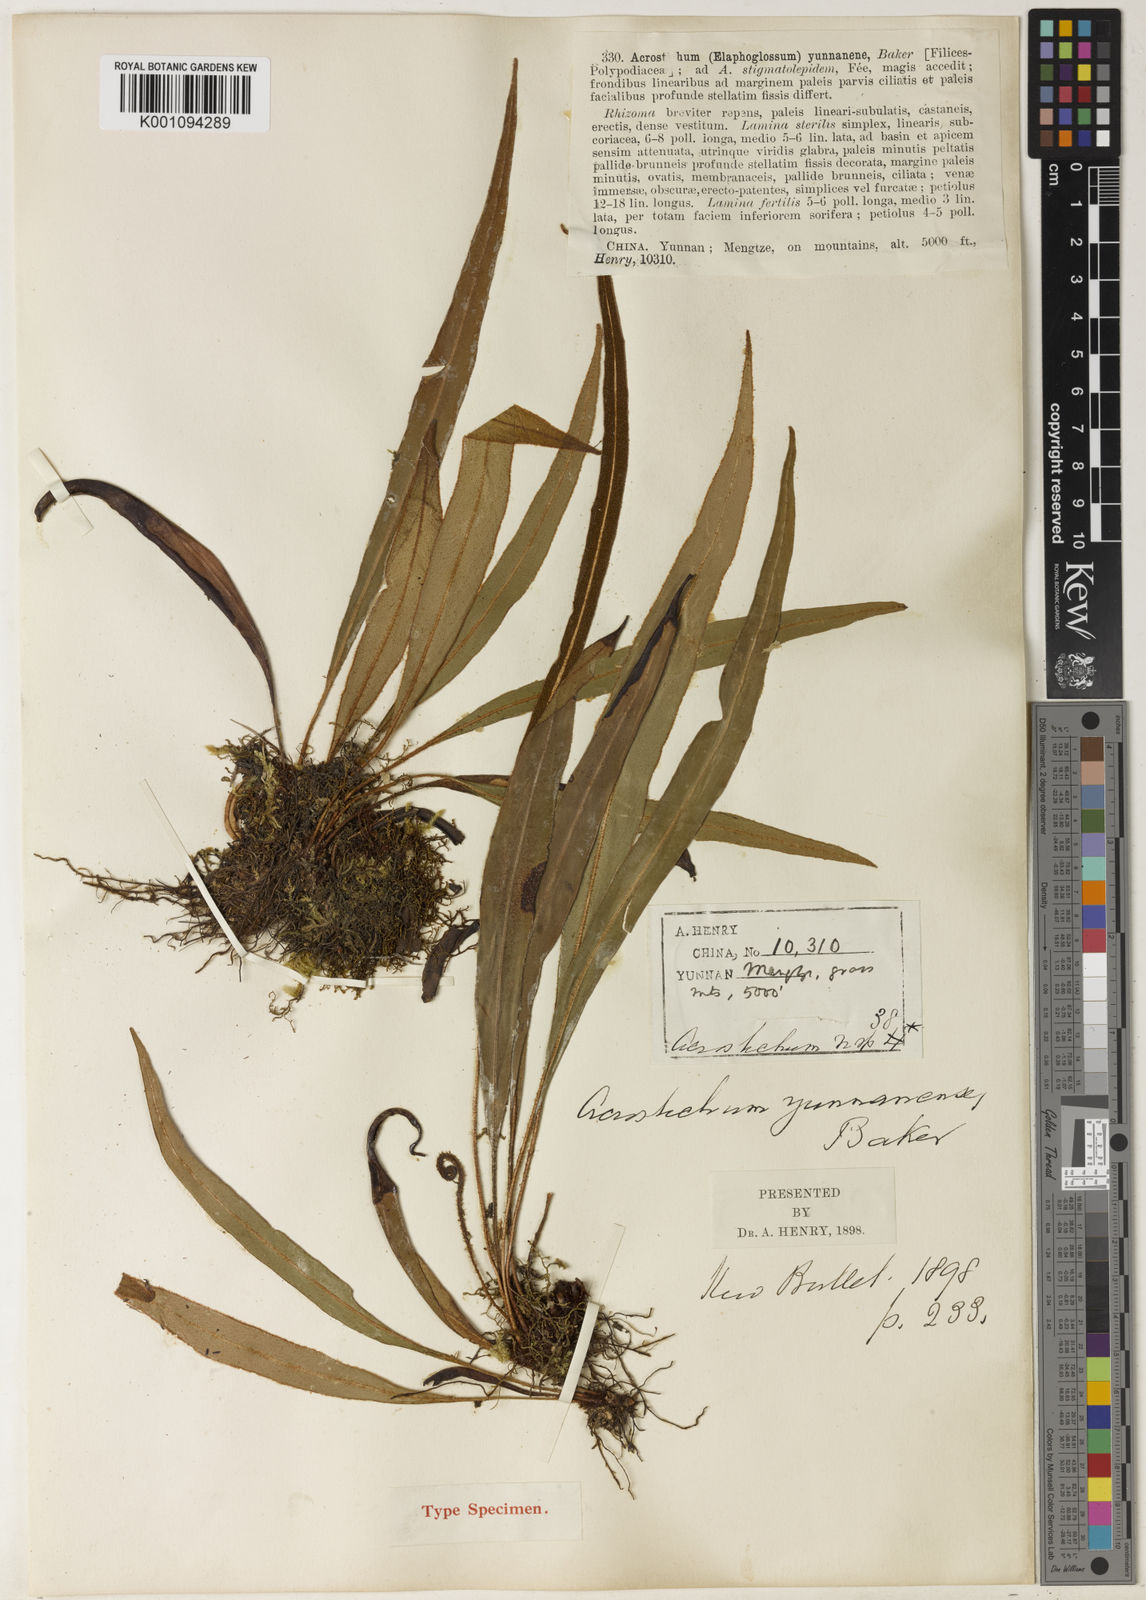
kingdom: Plantae
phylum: Tracheophyta
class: Polypodiopsida
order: Polypodiales
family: Dryopteridaceae
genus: Elaphoglossum
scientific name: Elaphoglossum stelligerum
